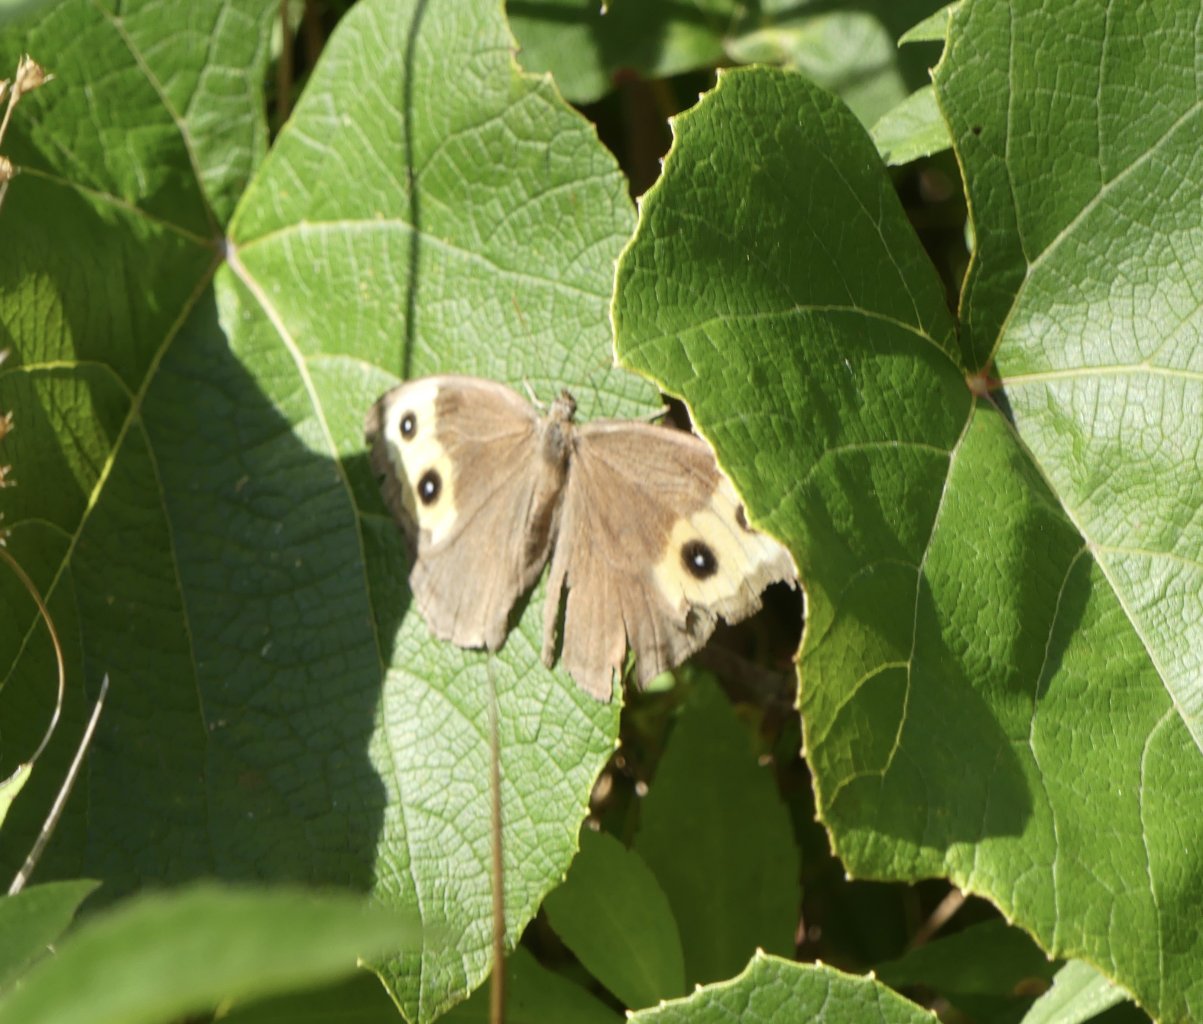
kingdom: Animalia
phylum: Arthropoda
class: Insecta
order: Lepidoptera
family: Nymphalidae
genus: Cercyonis
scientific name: Cercyonis pegala
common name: Common Wood-Nymph
